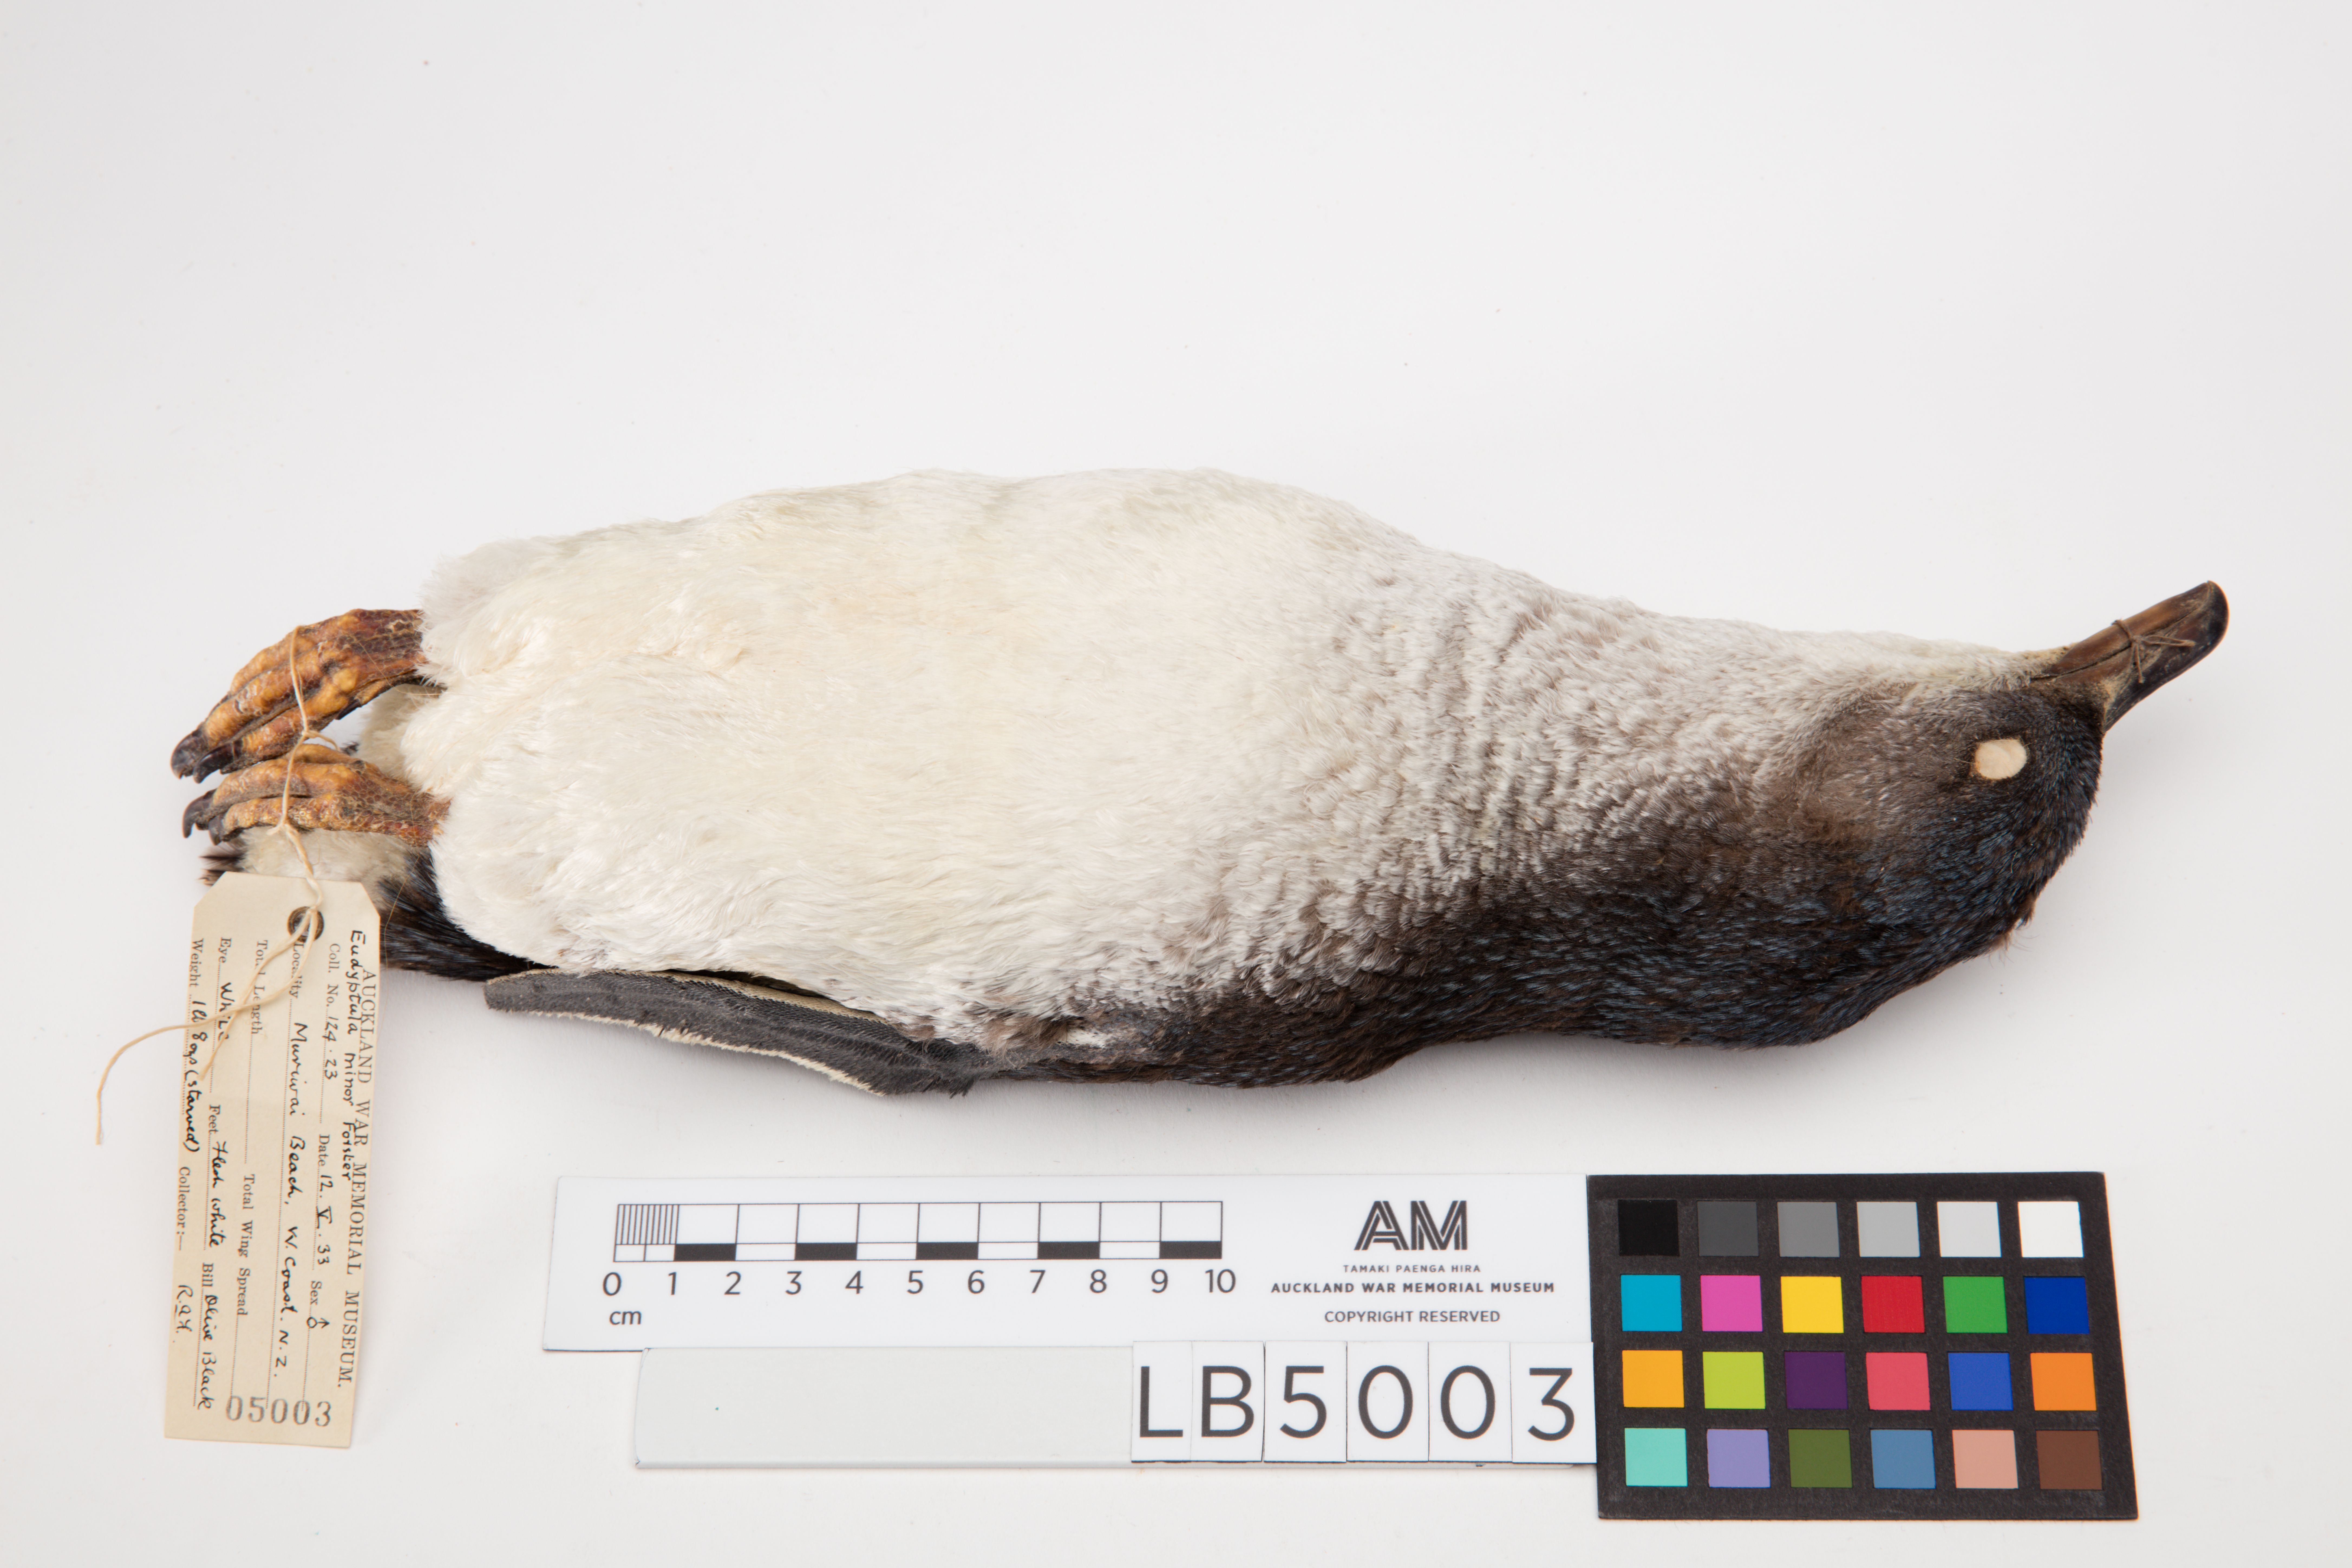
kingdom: Animalia
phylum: Chordata
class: Aves
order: Sphenisciformes
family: Spheniscidae
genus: Eudyptula
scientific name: Eudyptula minor
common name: Little penguin
